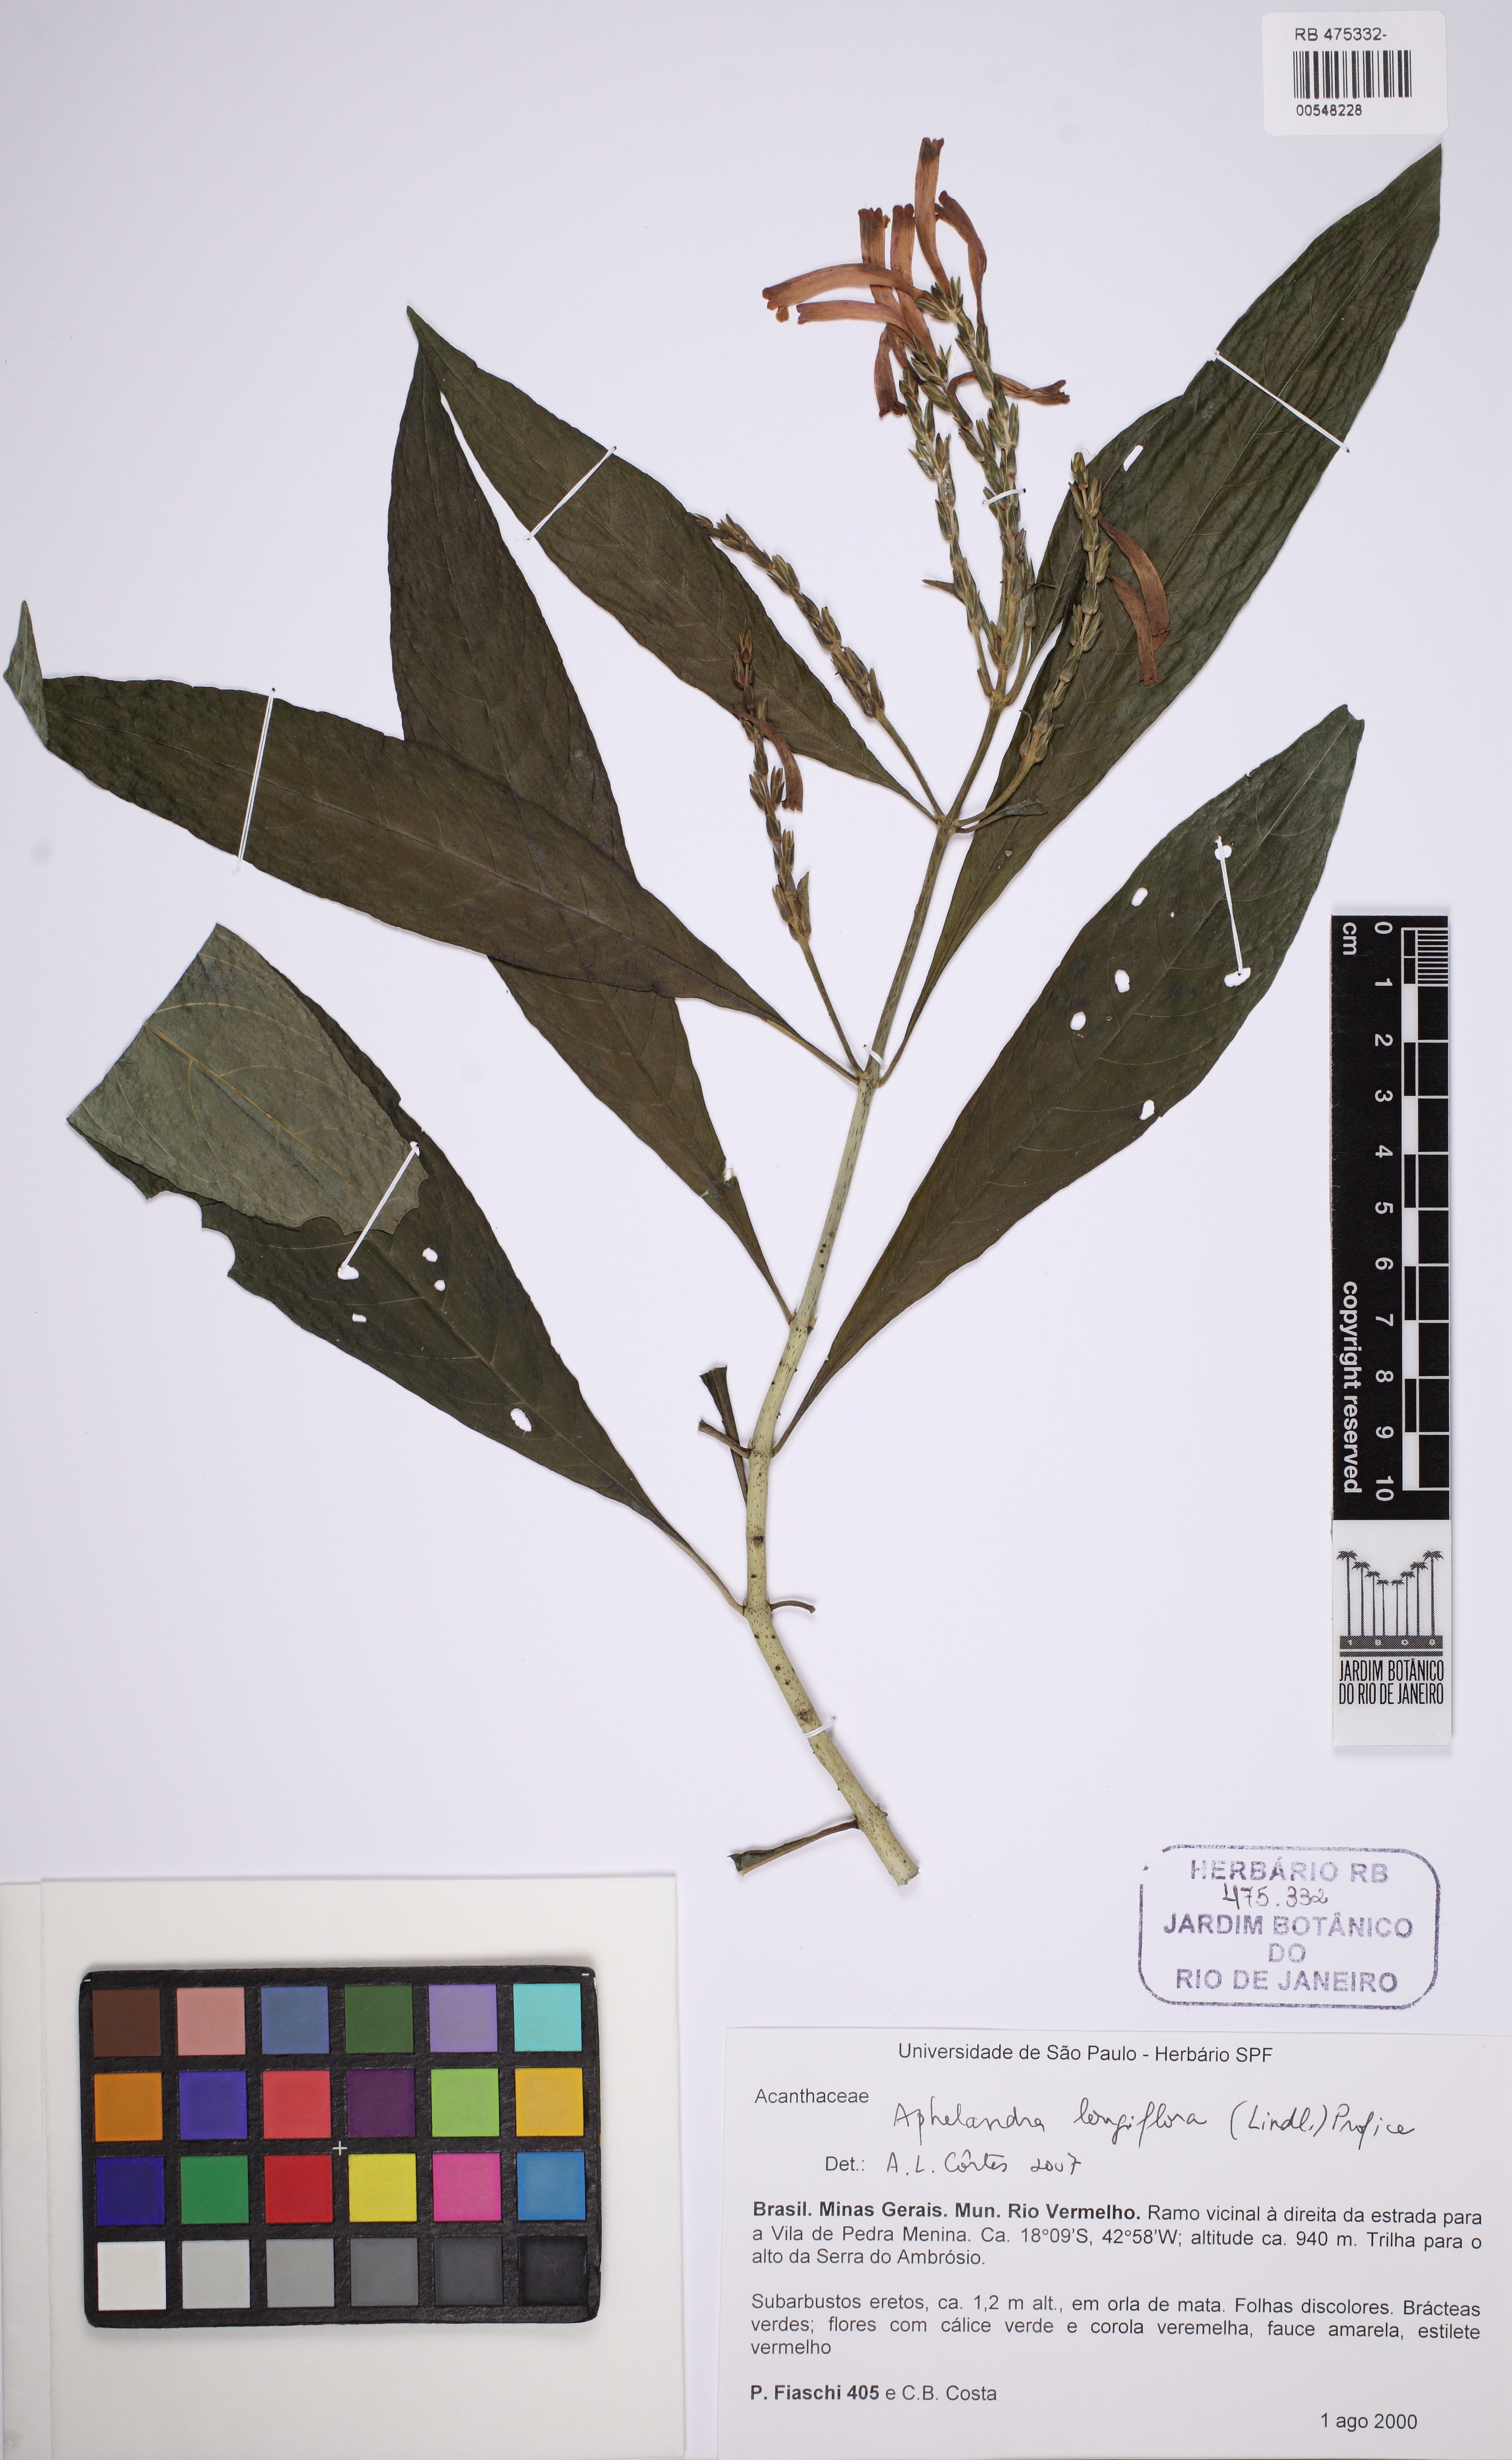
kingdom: Plantae
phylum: Tracheophyta
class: Magnoliopsida
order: Lamiales
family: Acanthaceae
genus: Aphelandra
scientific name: Aphelandra longiflora
